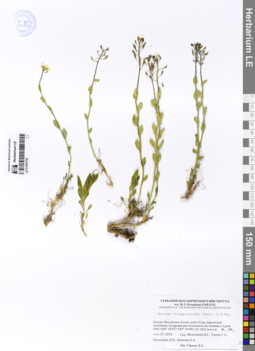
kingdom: Plantae
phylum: Tracheophyta
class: Magnoliopsida
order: Brassicales
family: Brassicaceae
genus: Noccaea
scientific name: Noccaea thlaspidioides
